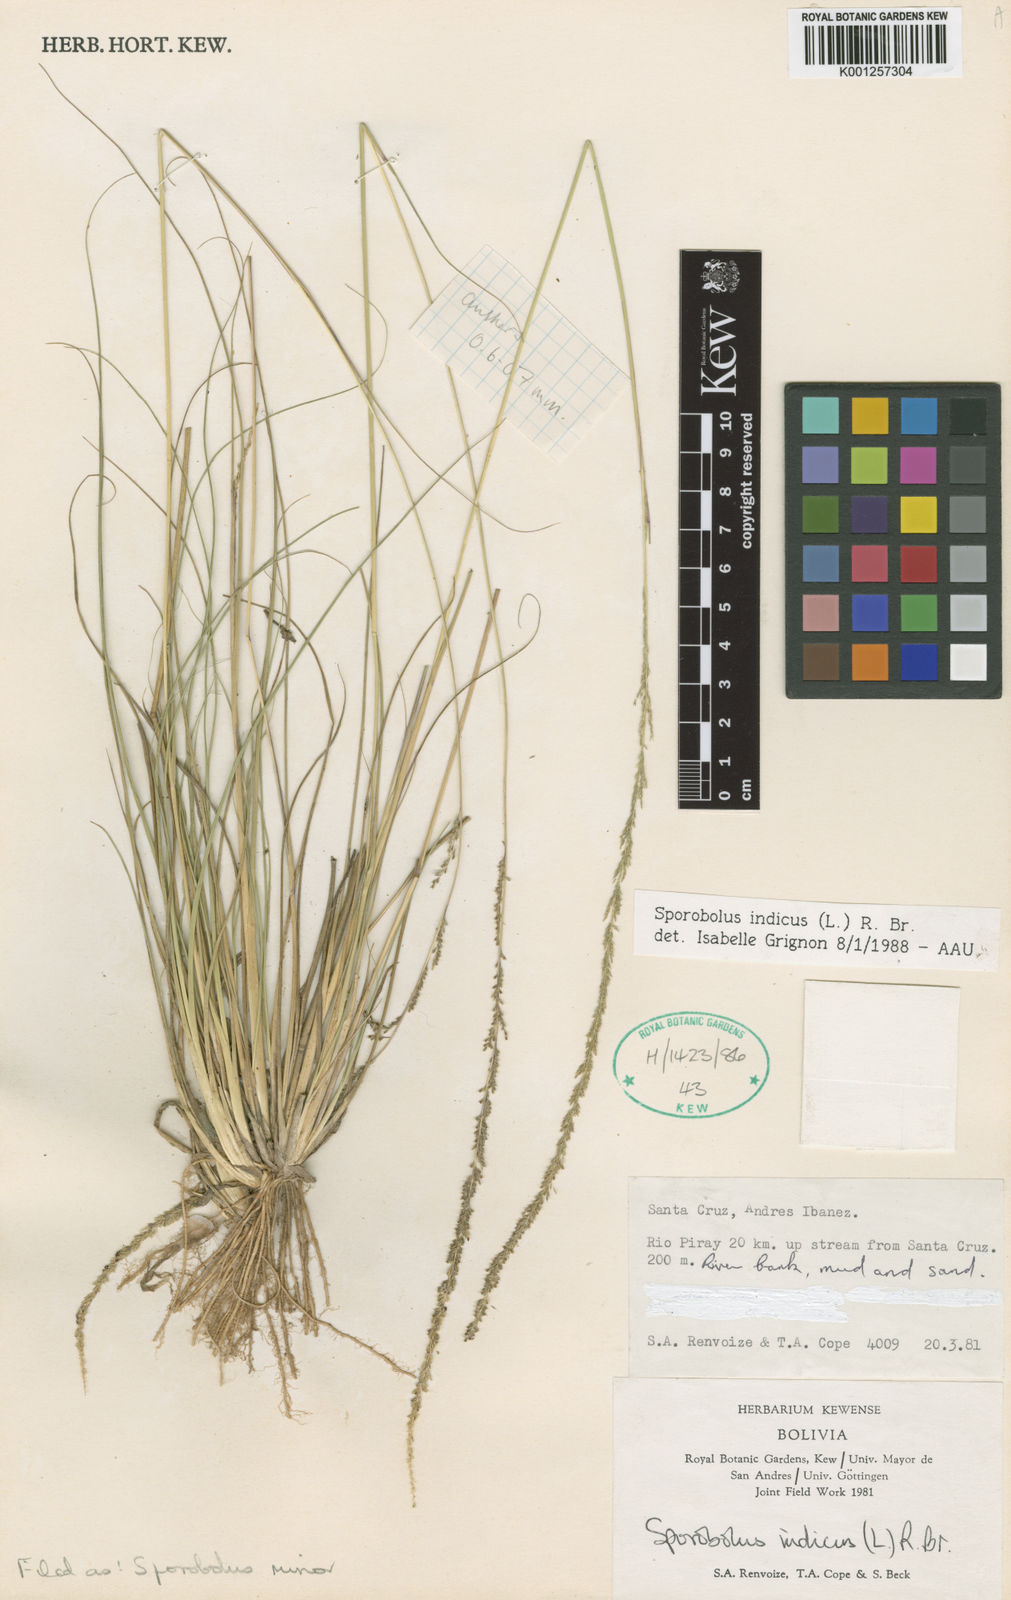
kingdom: Plantae
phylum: Tracheophyta
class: Liliopsida
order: Poales
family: Poaceae
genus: Sporobolus
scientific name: Sporobolus
